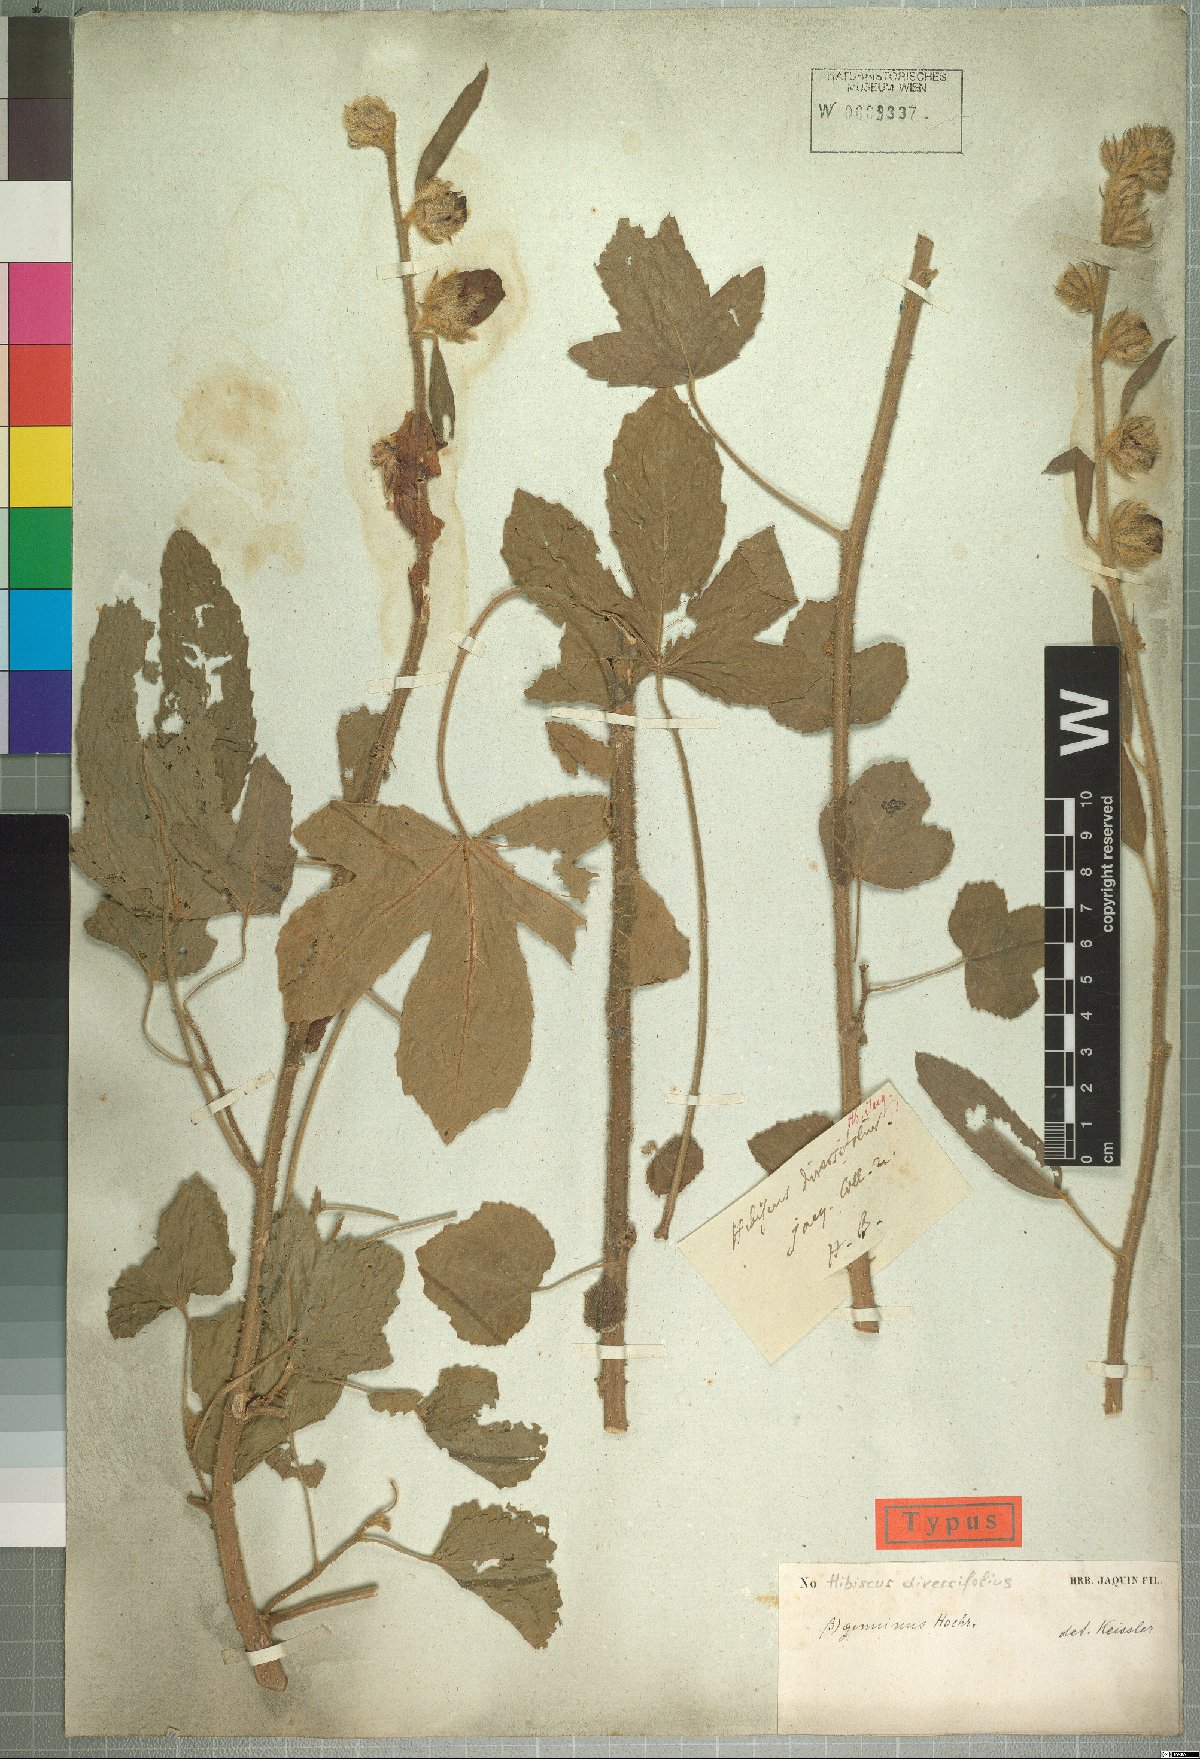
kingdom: Plantae
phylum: Tracheophyta
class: Magnoliopsida
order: Malvales
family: Malvaceae
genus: Hibiscus
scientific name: Hibiscus diversifolius
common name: Cape hibiscus
